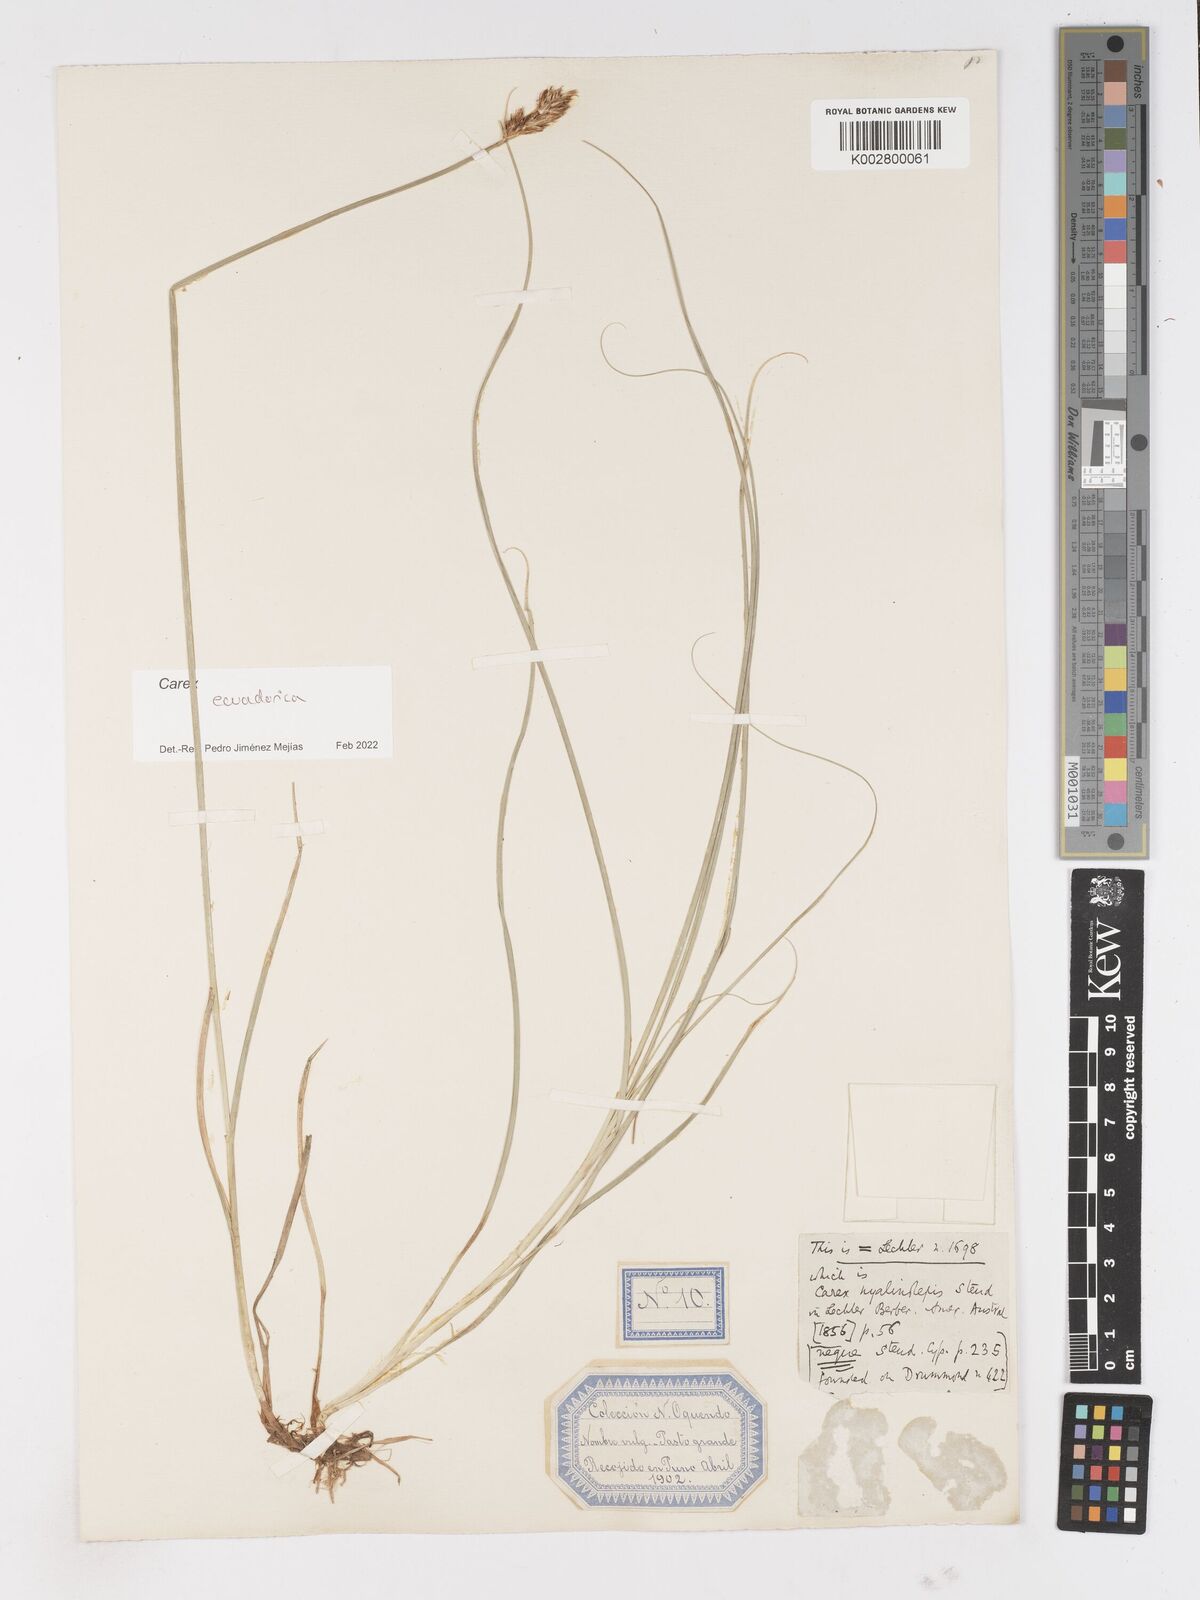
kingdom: Plantae
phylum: Tracheophyta
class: Liliopsida
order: Poales
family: Cyperaceae
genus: Carex
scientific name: Carex ecuadorica
